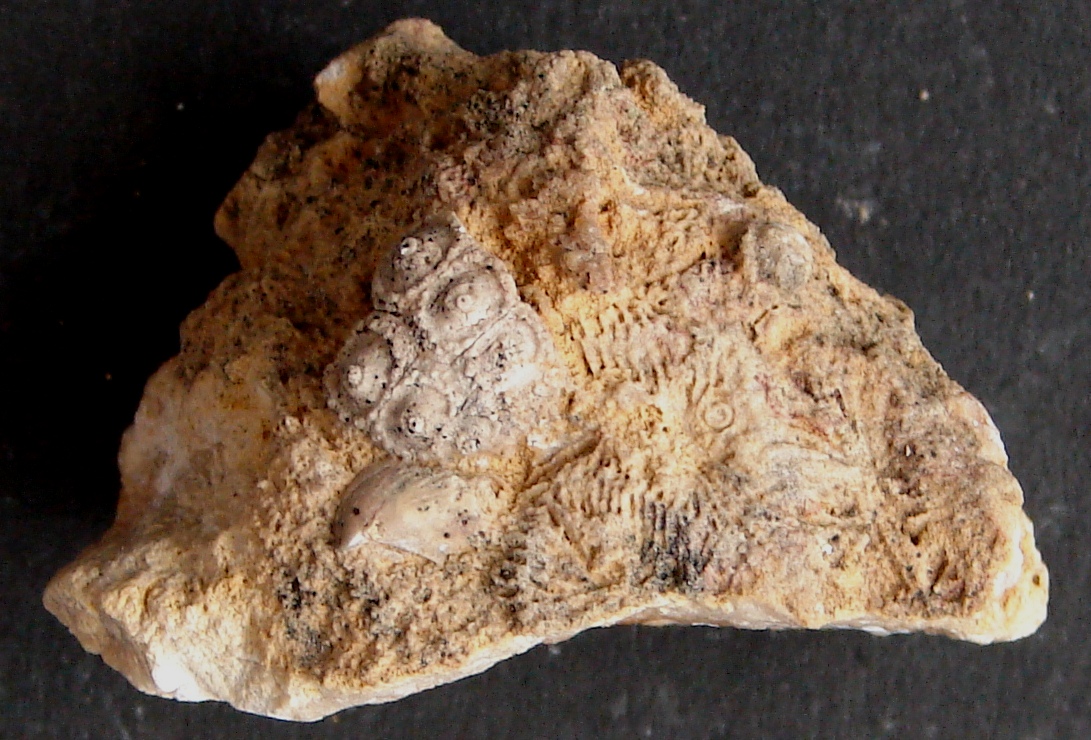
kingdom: Animalia
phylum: Echinodermata
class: Echinoidea
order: Cidaroida
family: Polycidaridae
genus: Anisocidaris
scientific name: Anisocidaris
